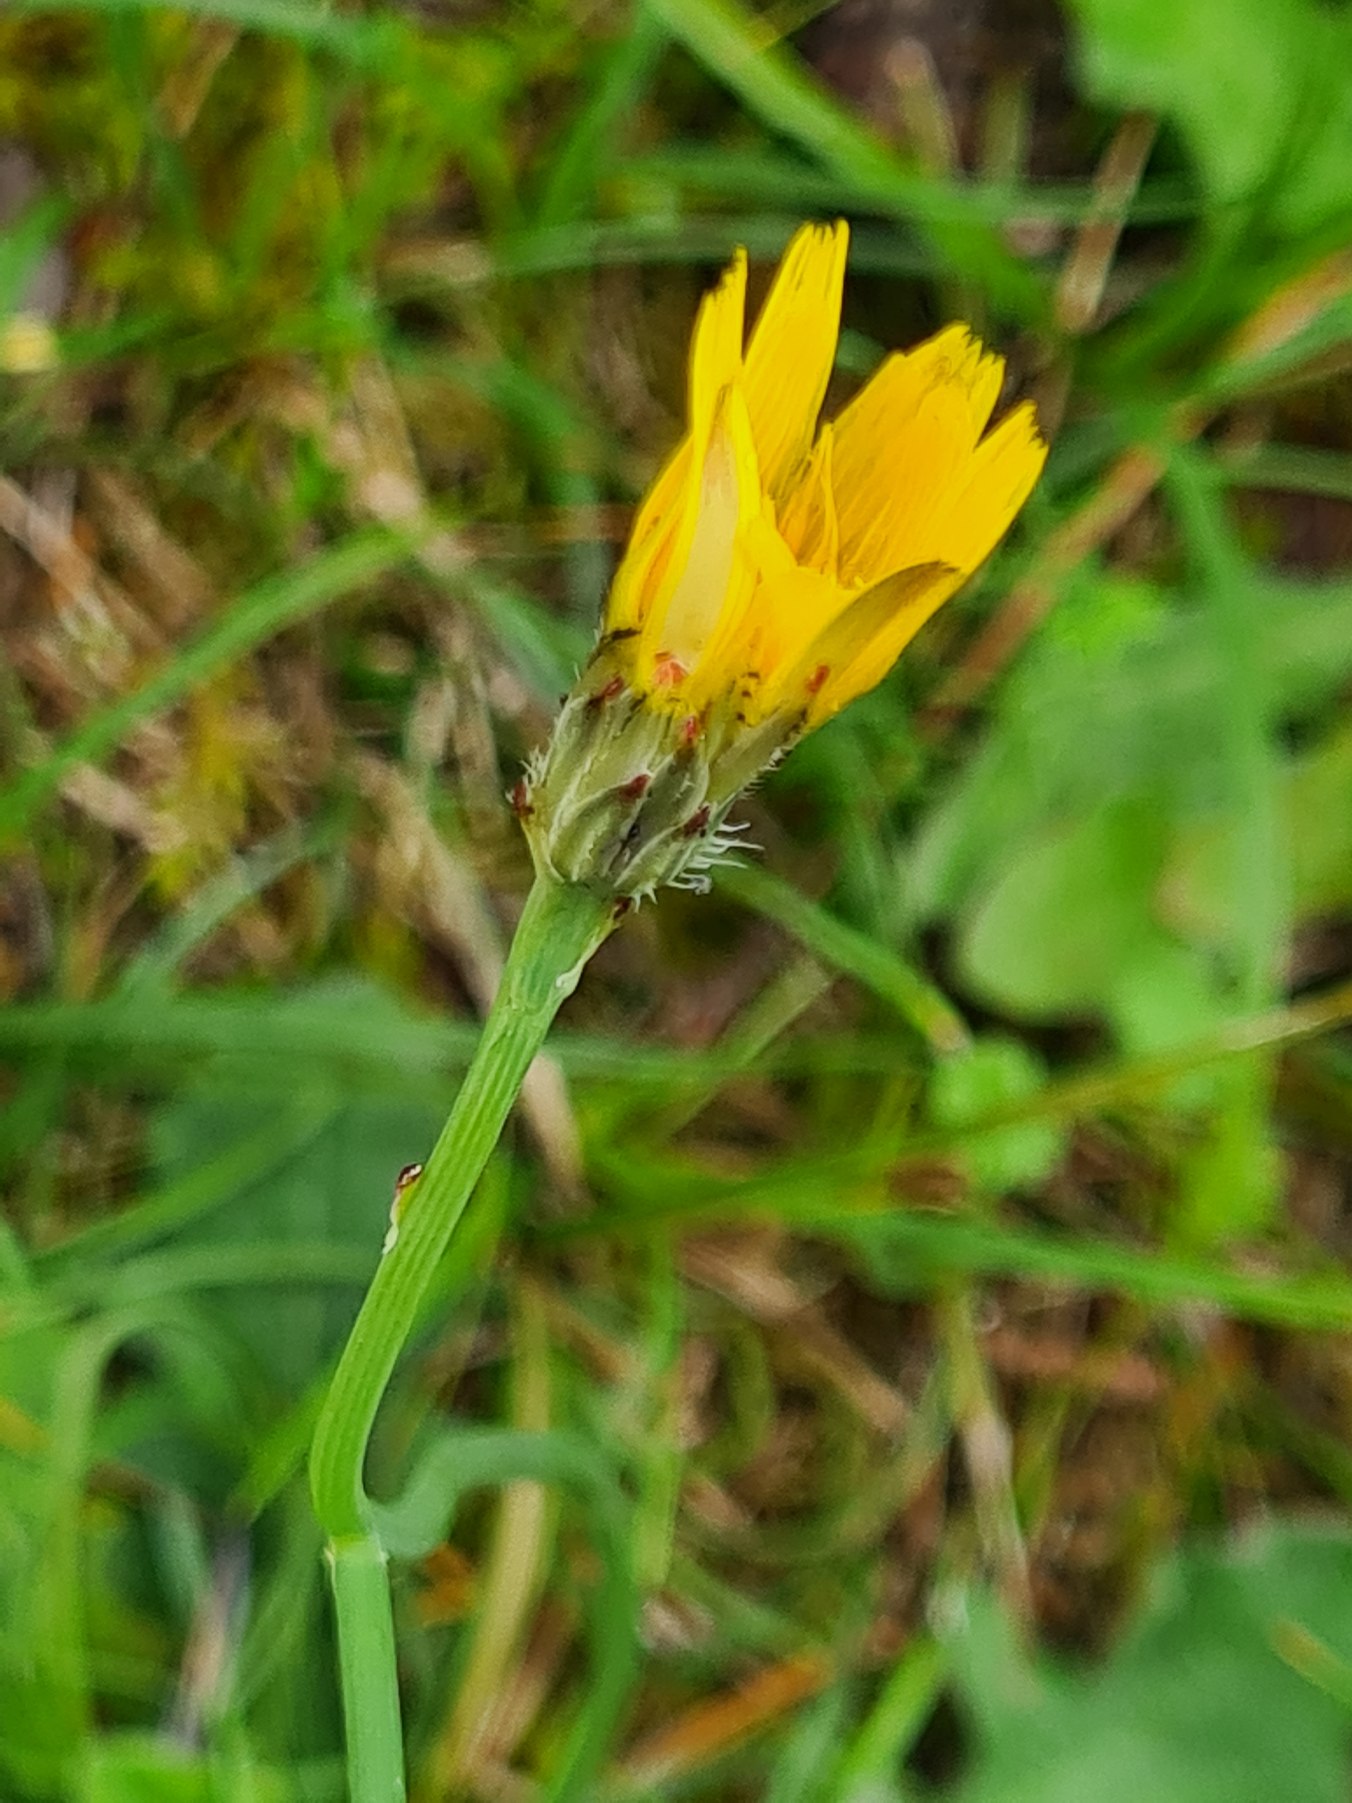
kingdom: Plantae
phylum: Tracheophyta
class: Magnoliopsida
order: Asterales
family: Asteraceae
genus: Hypochaeris
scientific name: Hypochaeris radicata
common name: Almindelig kongepen
